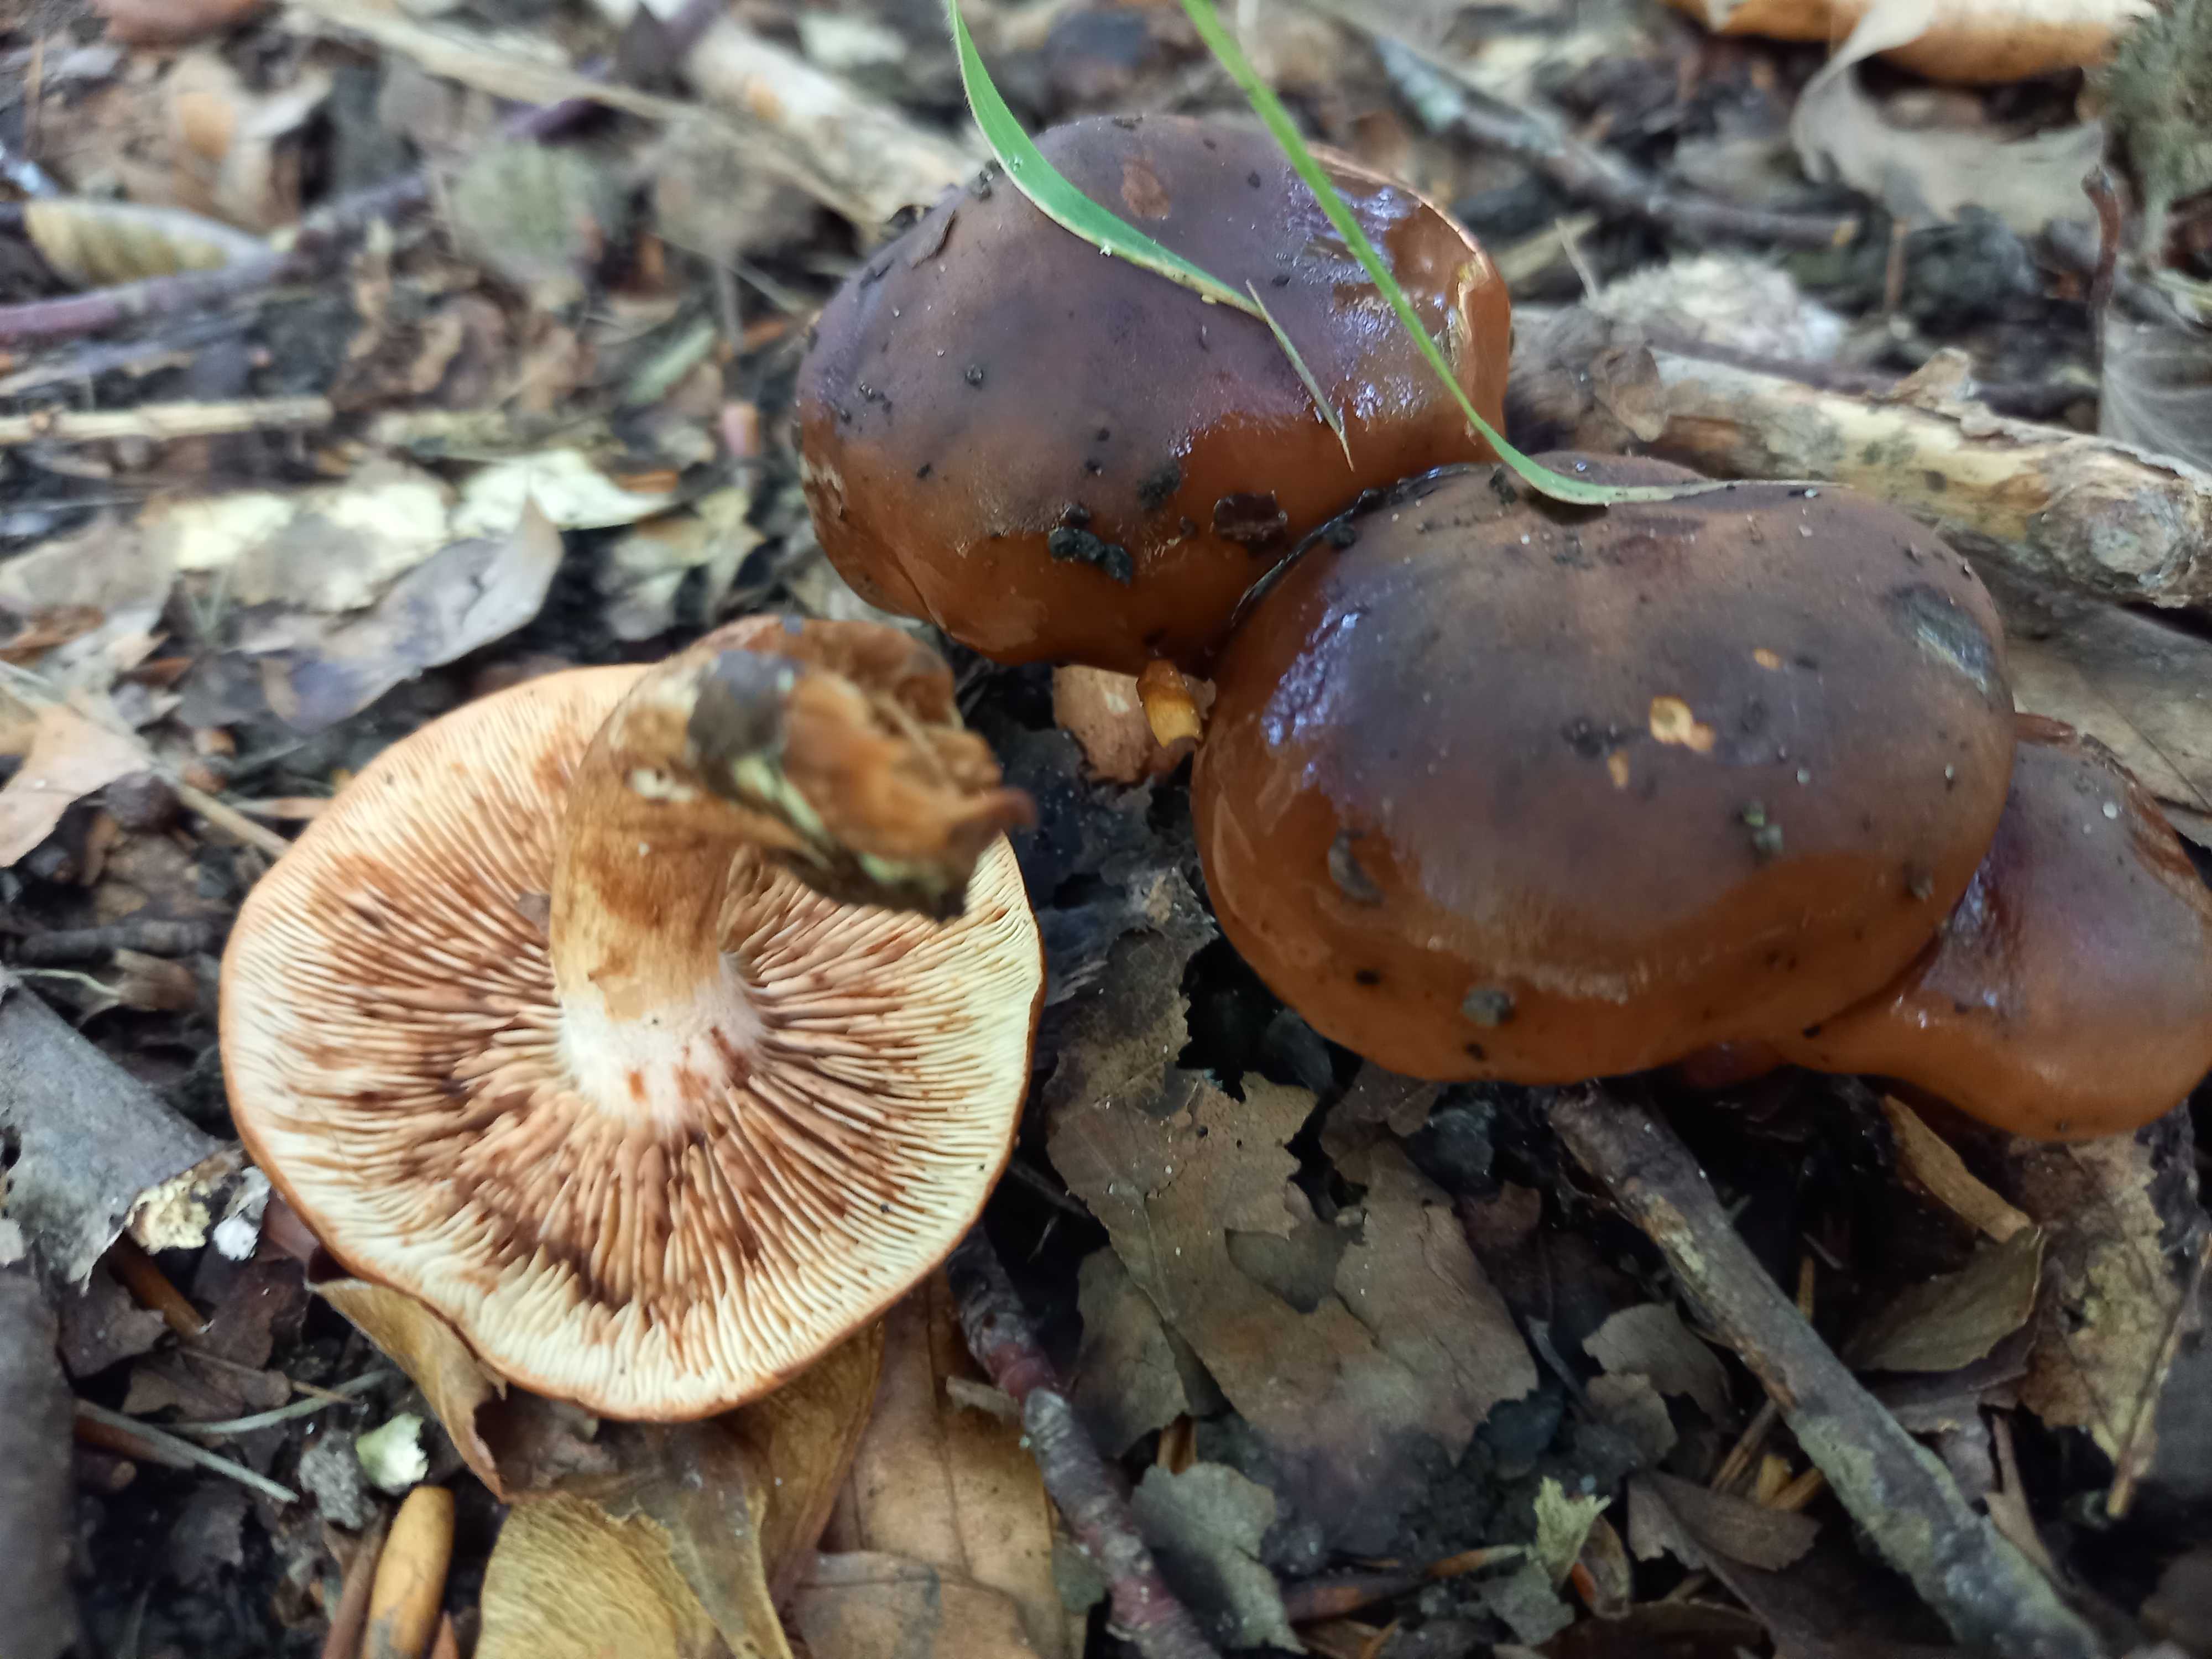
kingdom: Fungi
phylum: Basidiomycota
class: Agaricomycetes
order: Agaricales
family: Tricholomataceae
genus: Tricholoma
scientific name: Tricholoma ustale
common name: sveden ridderhat
